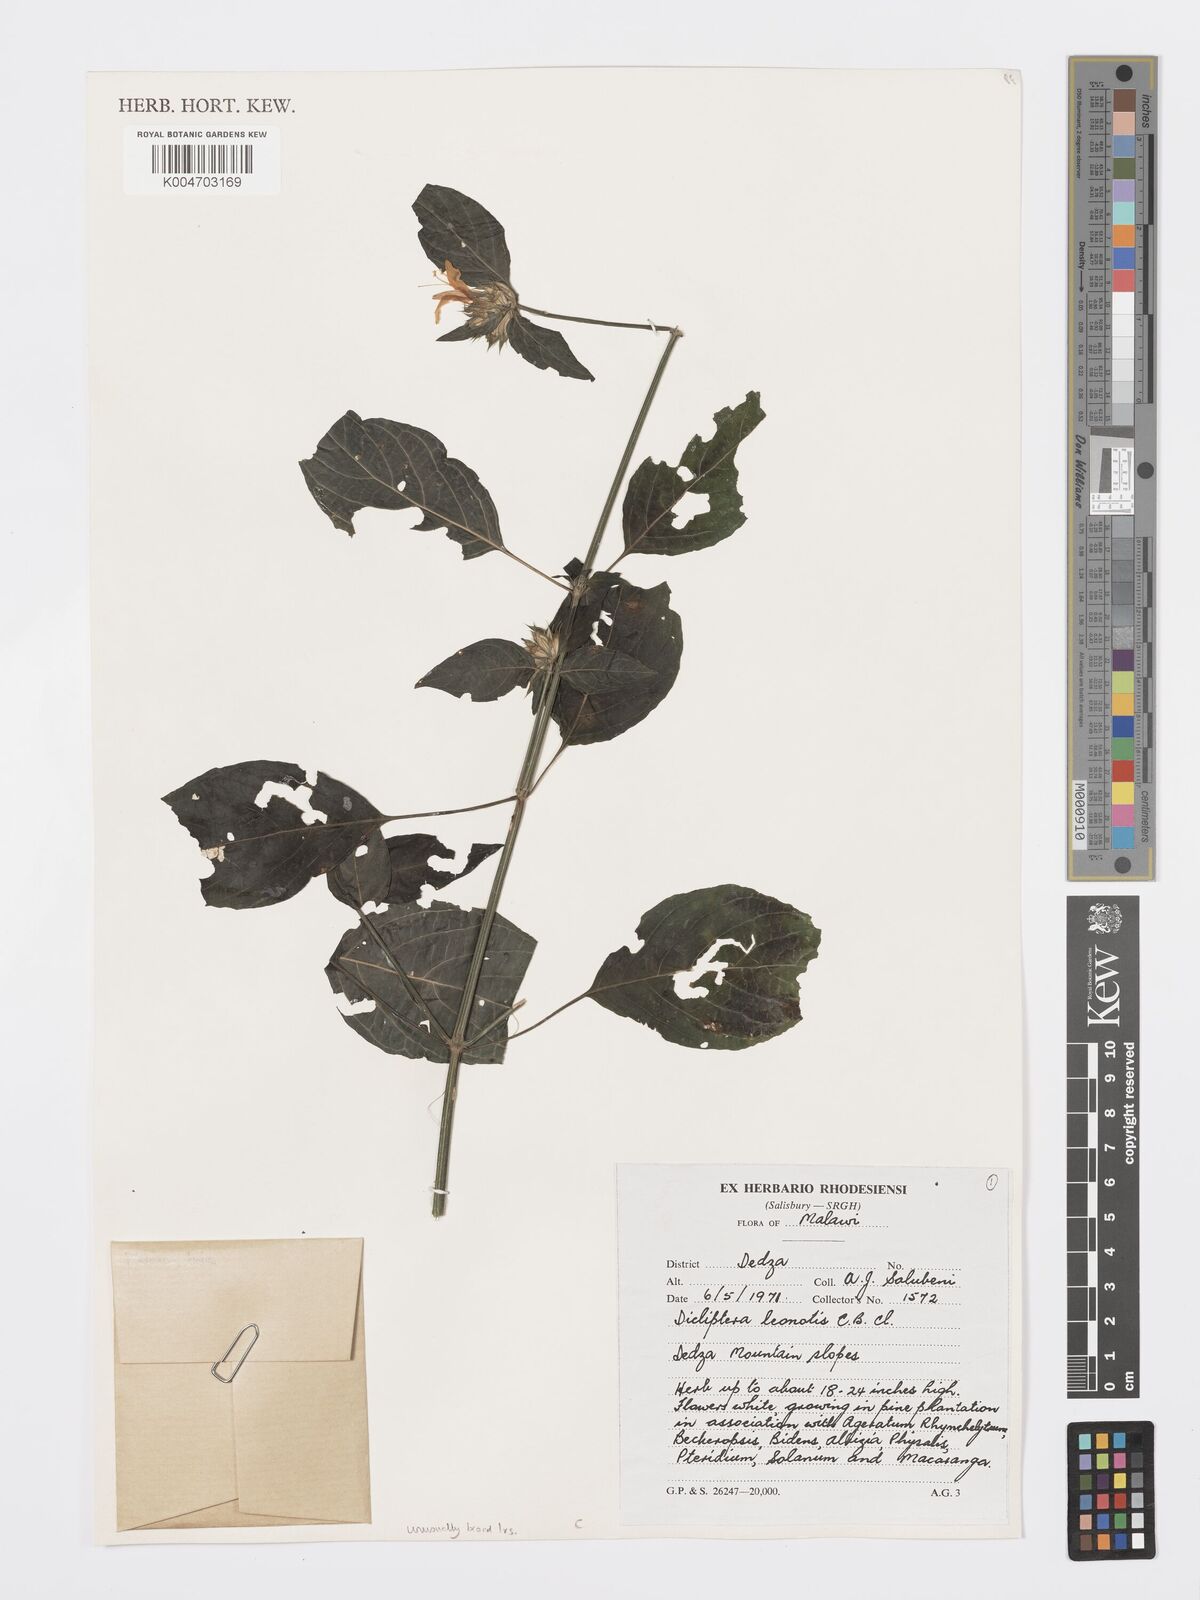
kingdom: Plantae
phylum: Tracheophyta
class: Magnoliopsida
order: Lamiales
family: Acanthaceae
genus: Dicliptera
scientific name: Dicliptera clinopodia
